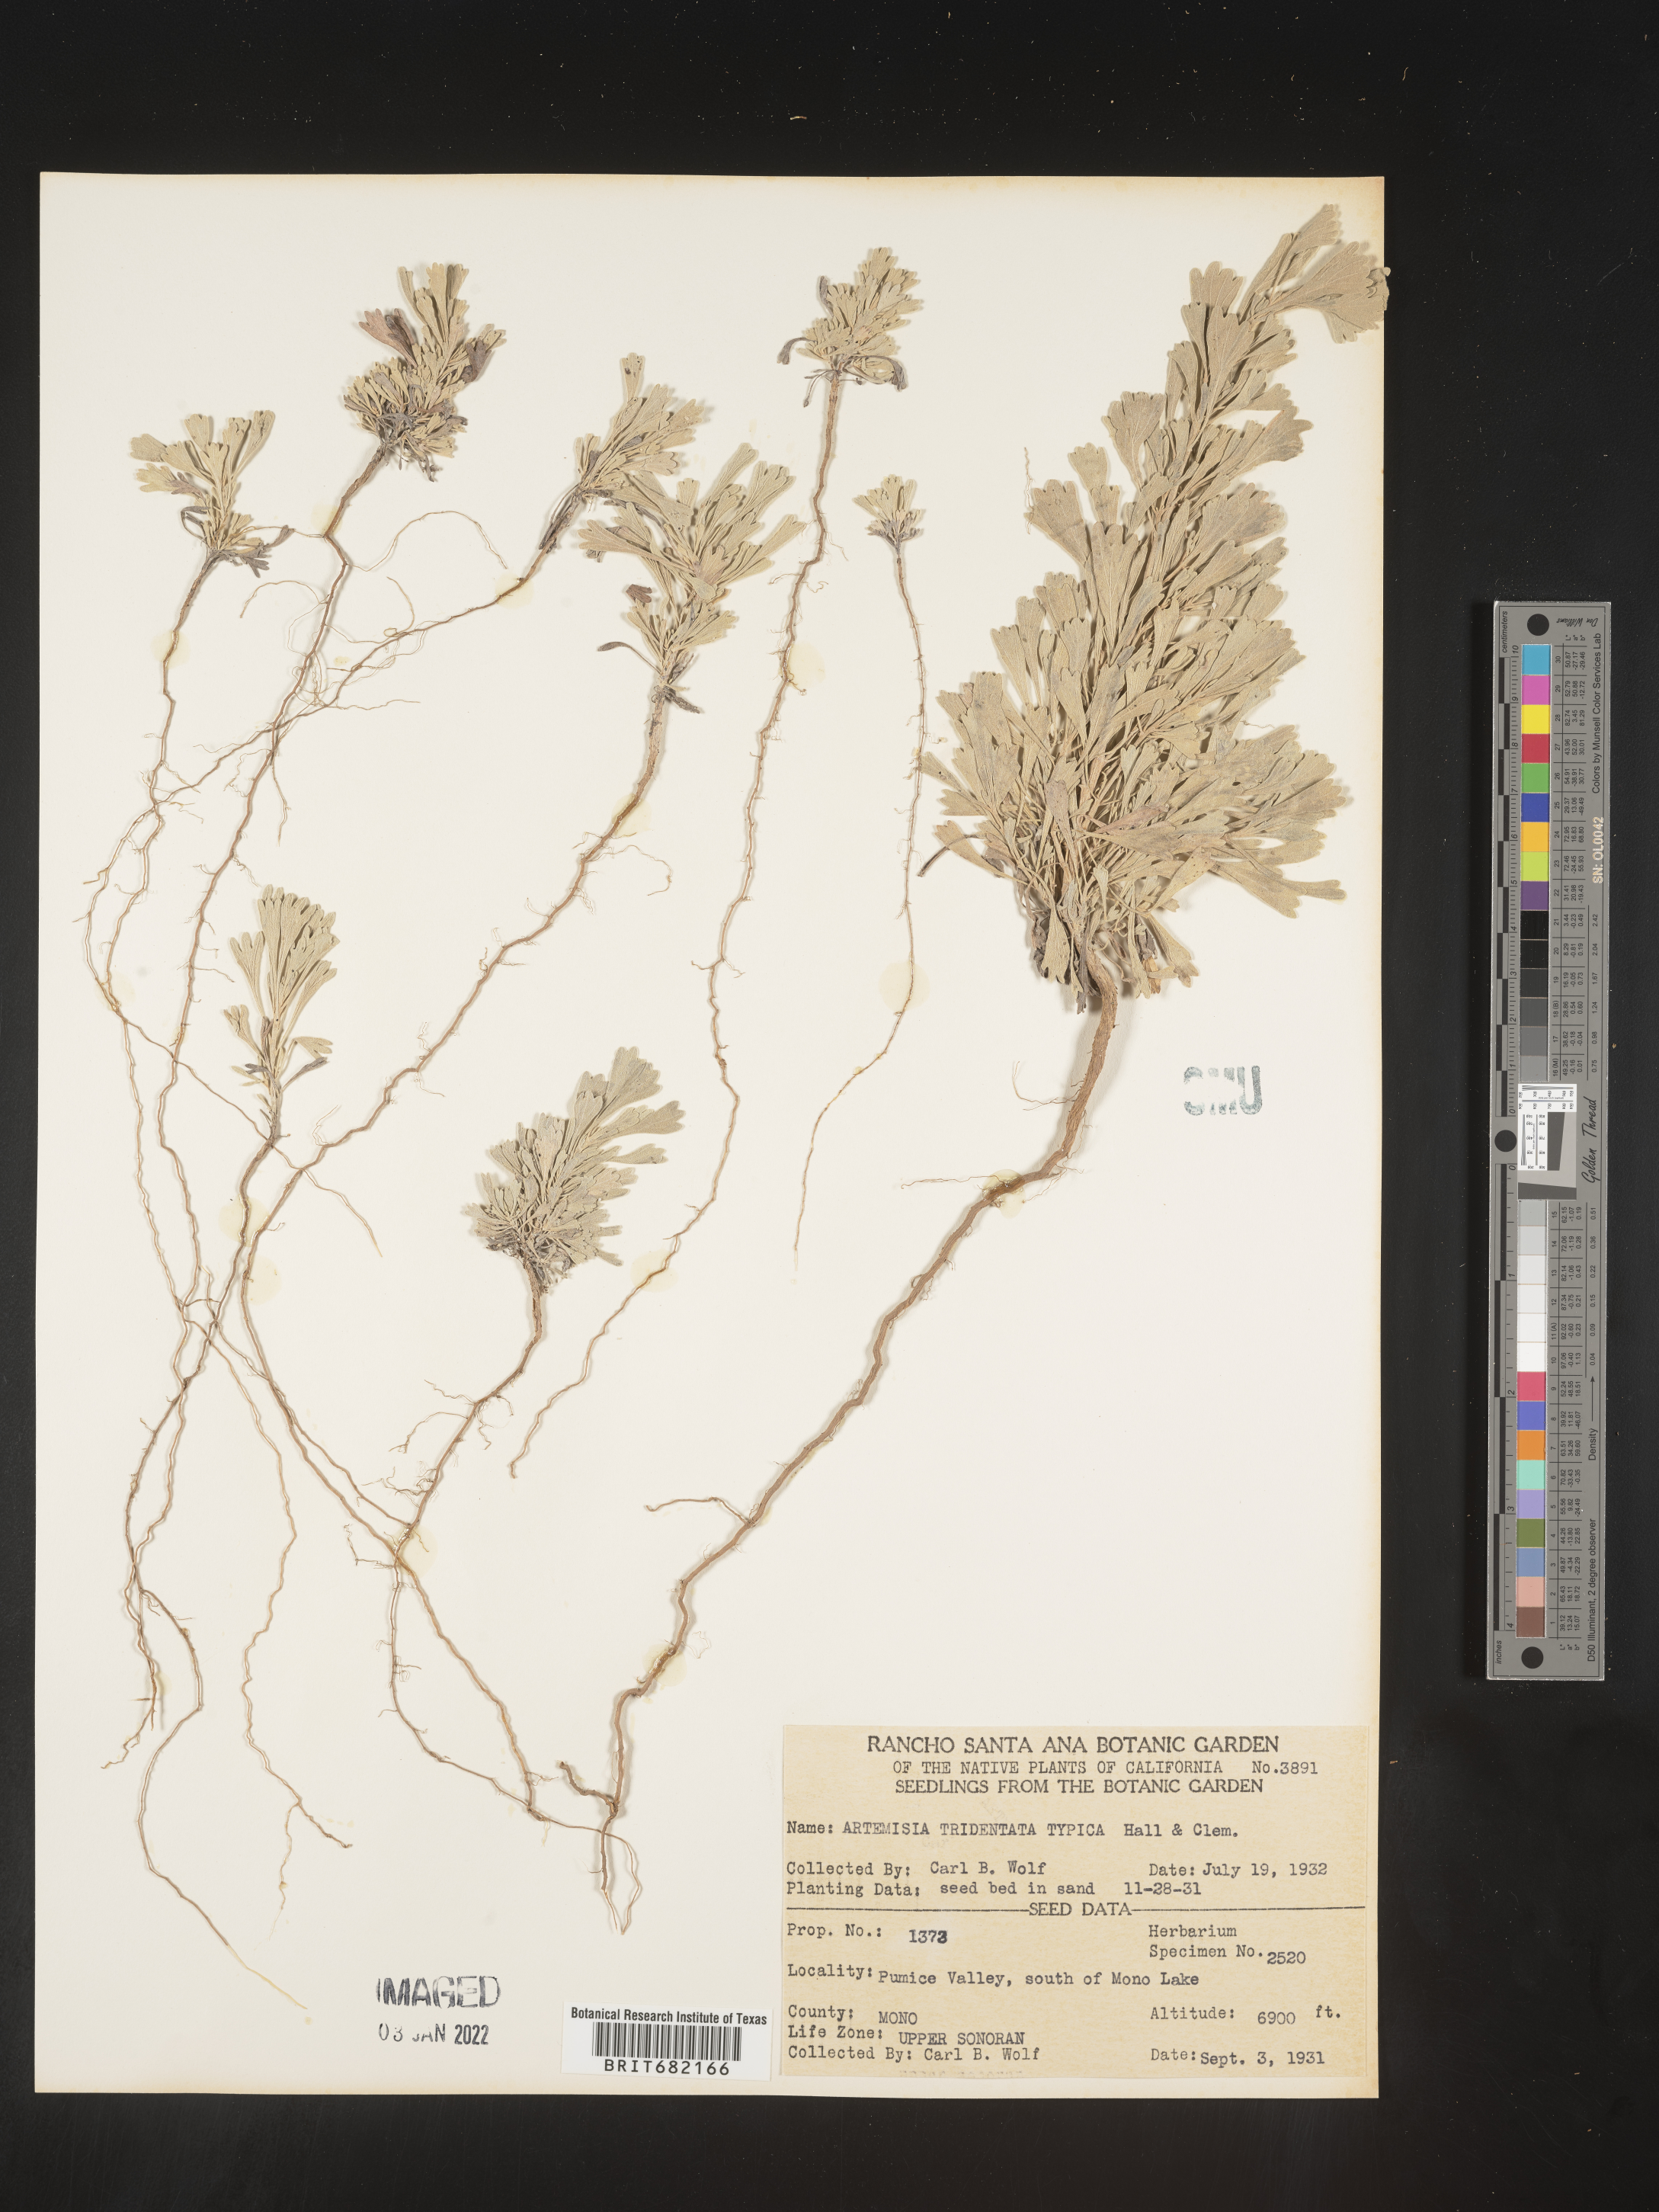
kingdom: Plantae
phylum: Tracheophyta
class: Magnoliopsida
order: Asterales
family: Asteraceae
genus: Artemisia
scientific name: Artemisia tridentata
